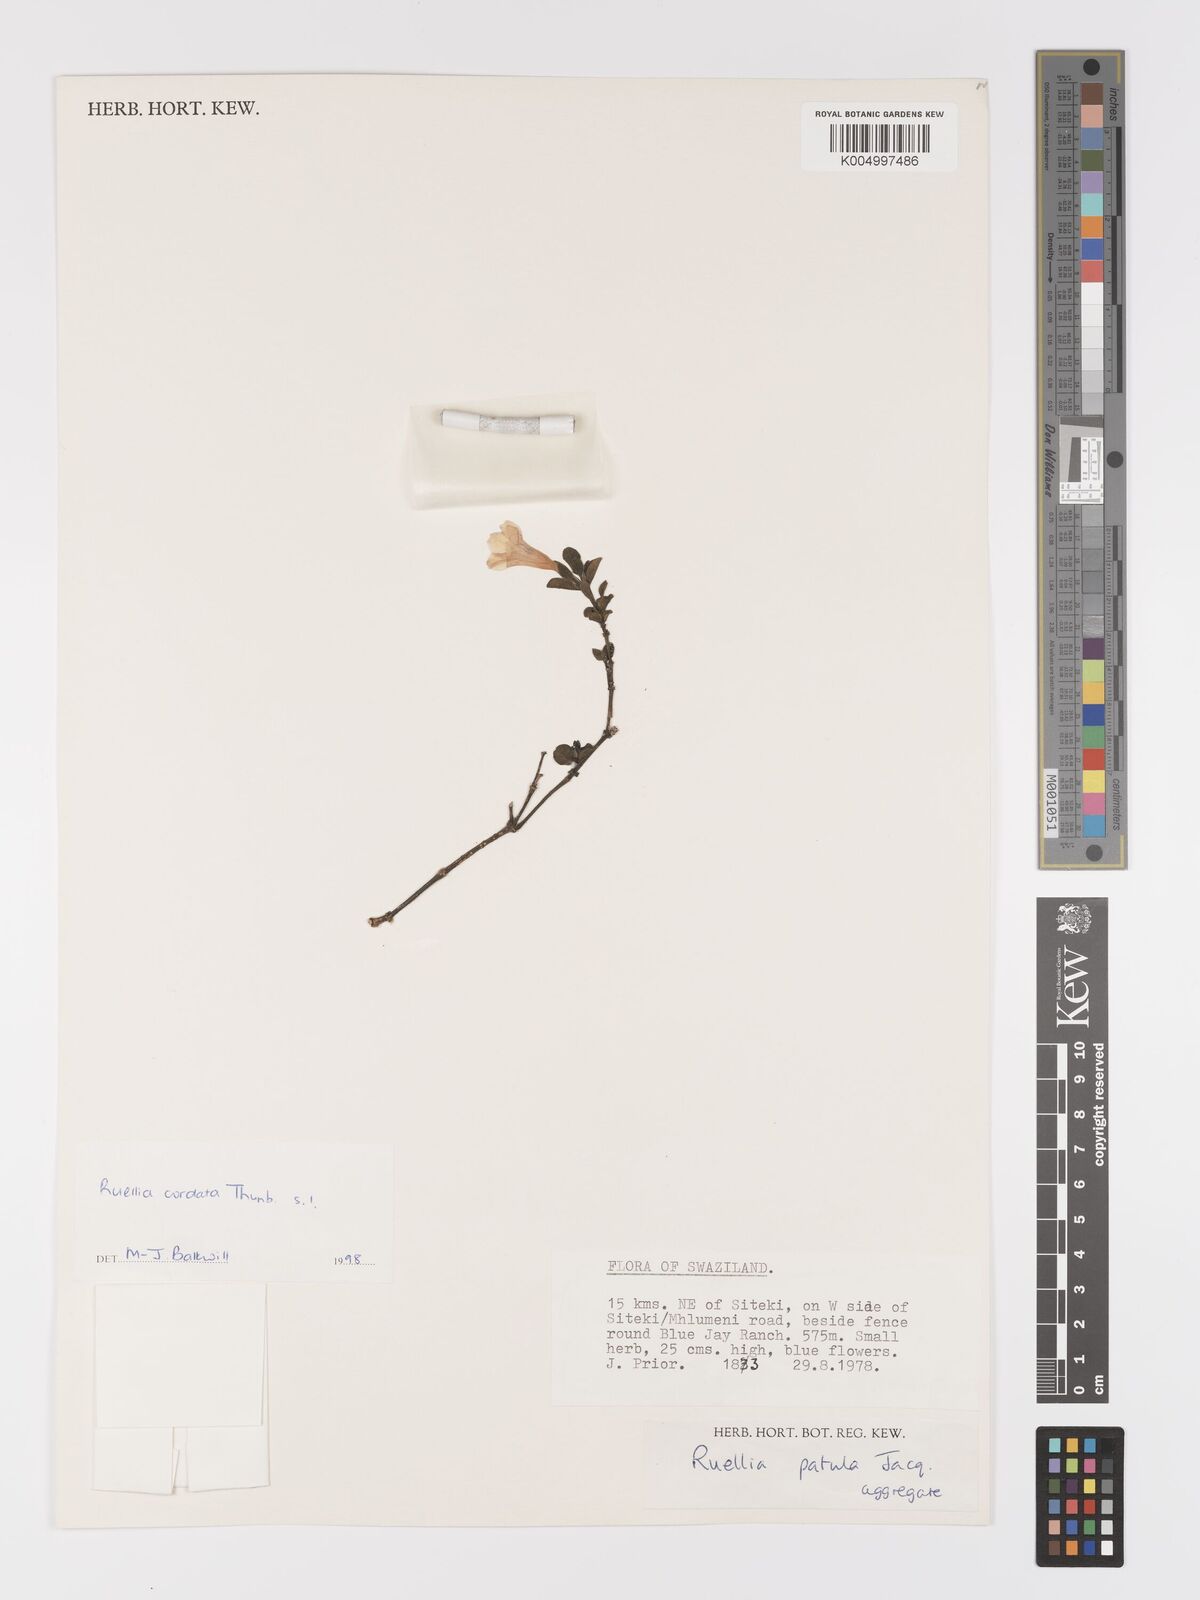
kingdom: Plantae
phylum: Tracheophyta
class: Magnoliopsida
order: Lamiales
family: Acanthaceae
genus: Ruellia
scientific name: Ruellia cordata
